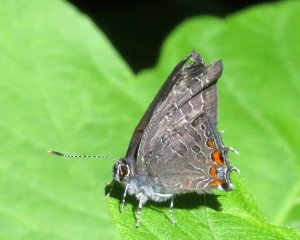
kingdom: Animalia
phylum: Arthropoda
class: Insecta
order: Lepidoptera
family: Lycaenidae
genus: Satyrium
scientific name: Satyrium liparops
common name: Striped Hairstreak
